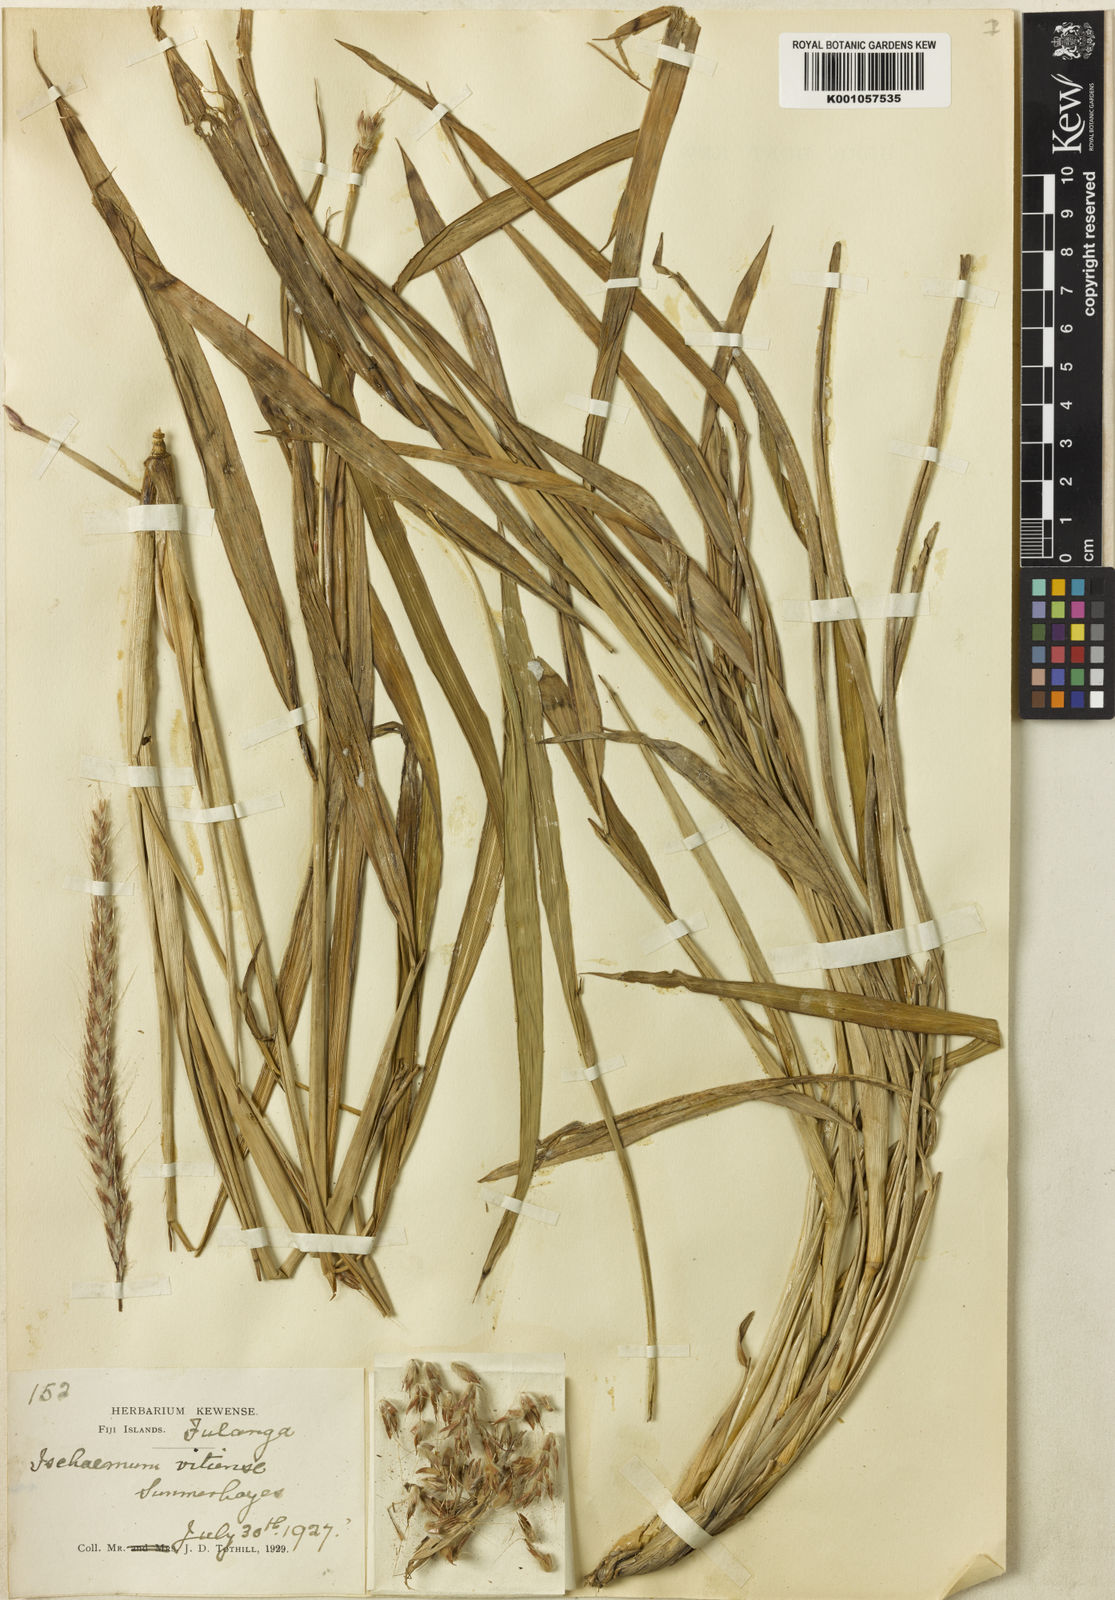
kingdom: Plantae
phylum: Tracheophyta
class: Liliopsida
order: Poales
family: Poaceae
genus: Ischaemum
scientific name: Ischaemum barbatum
